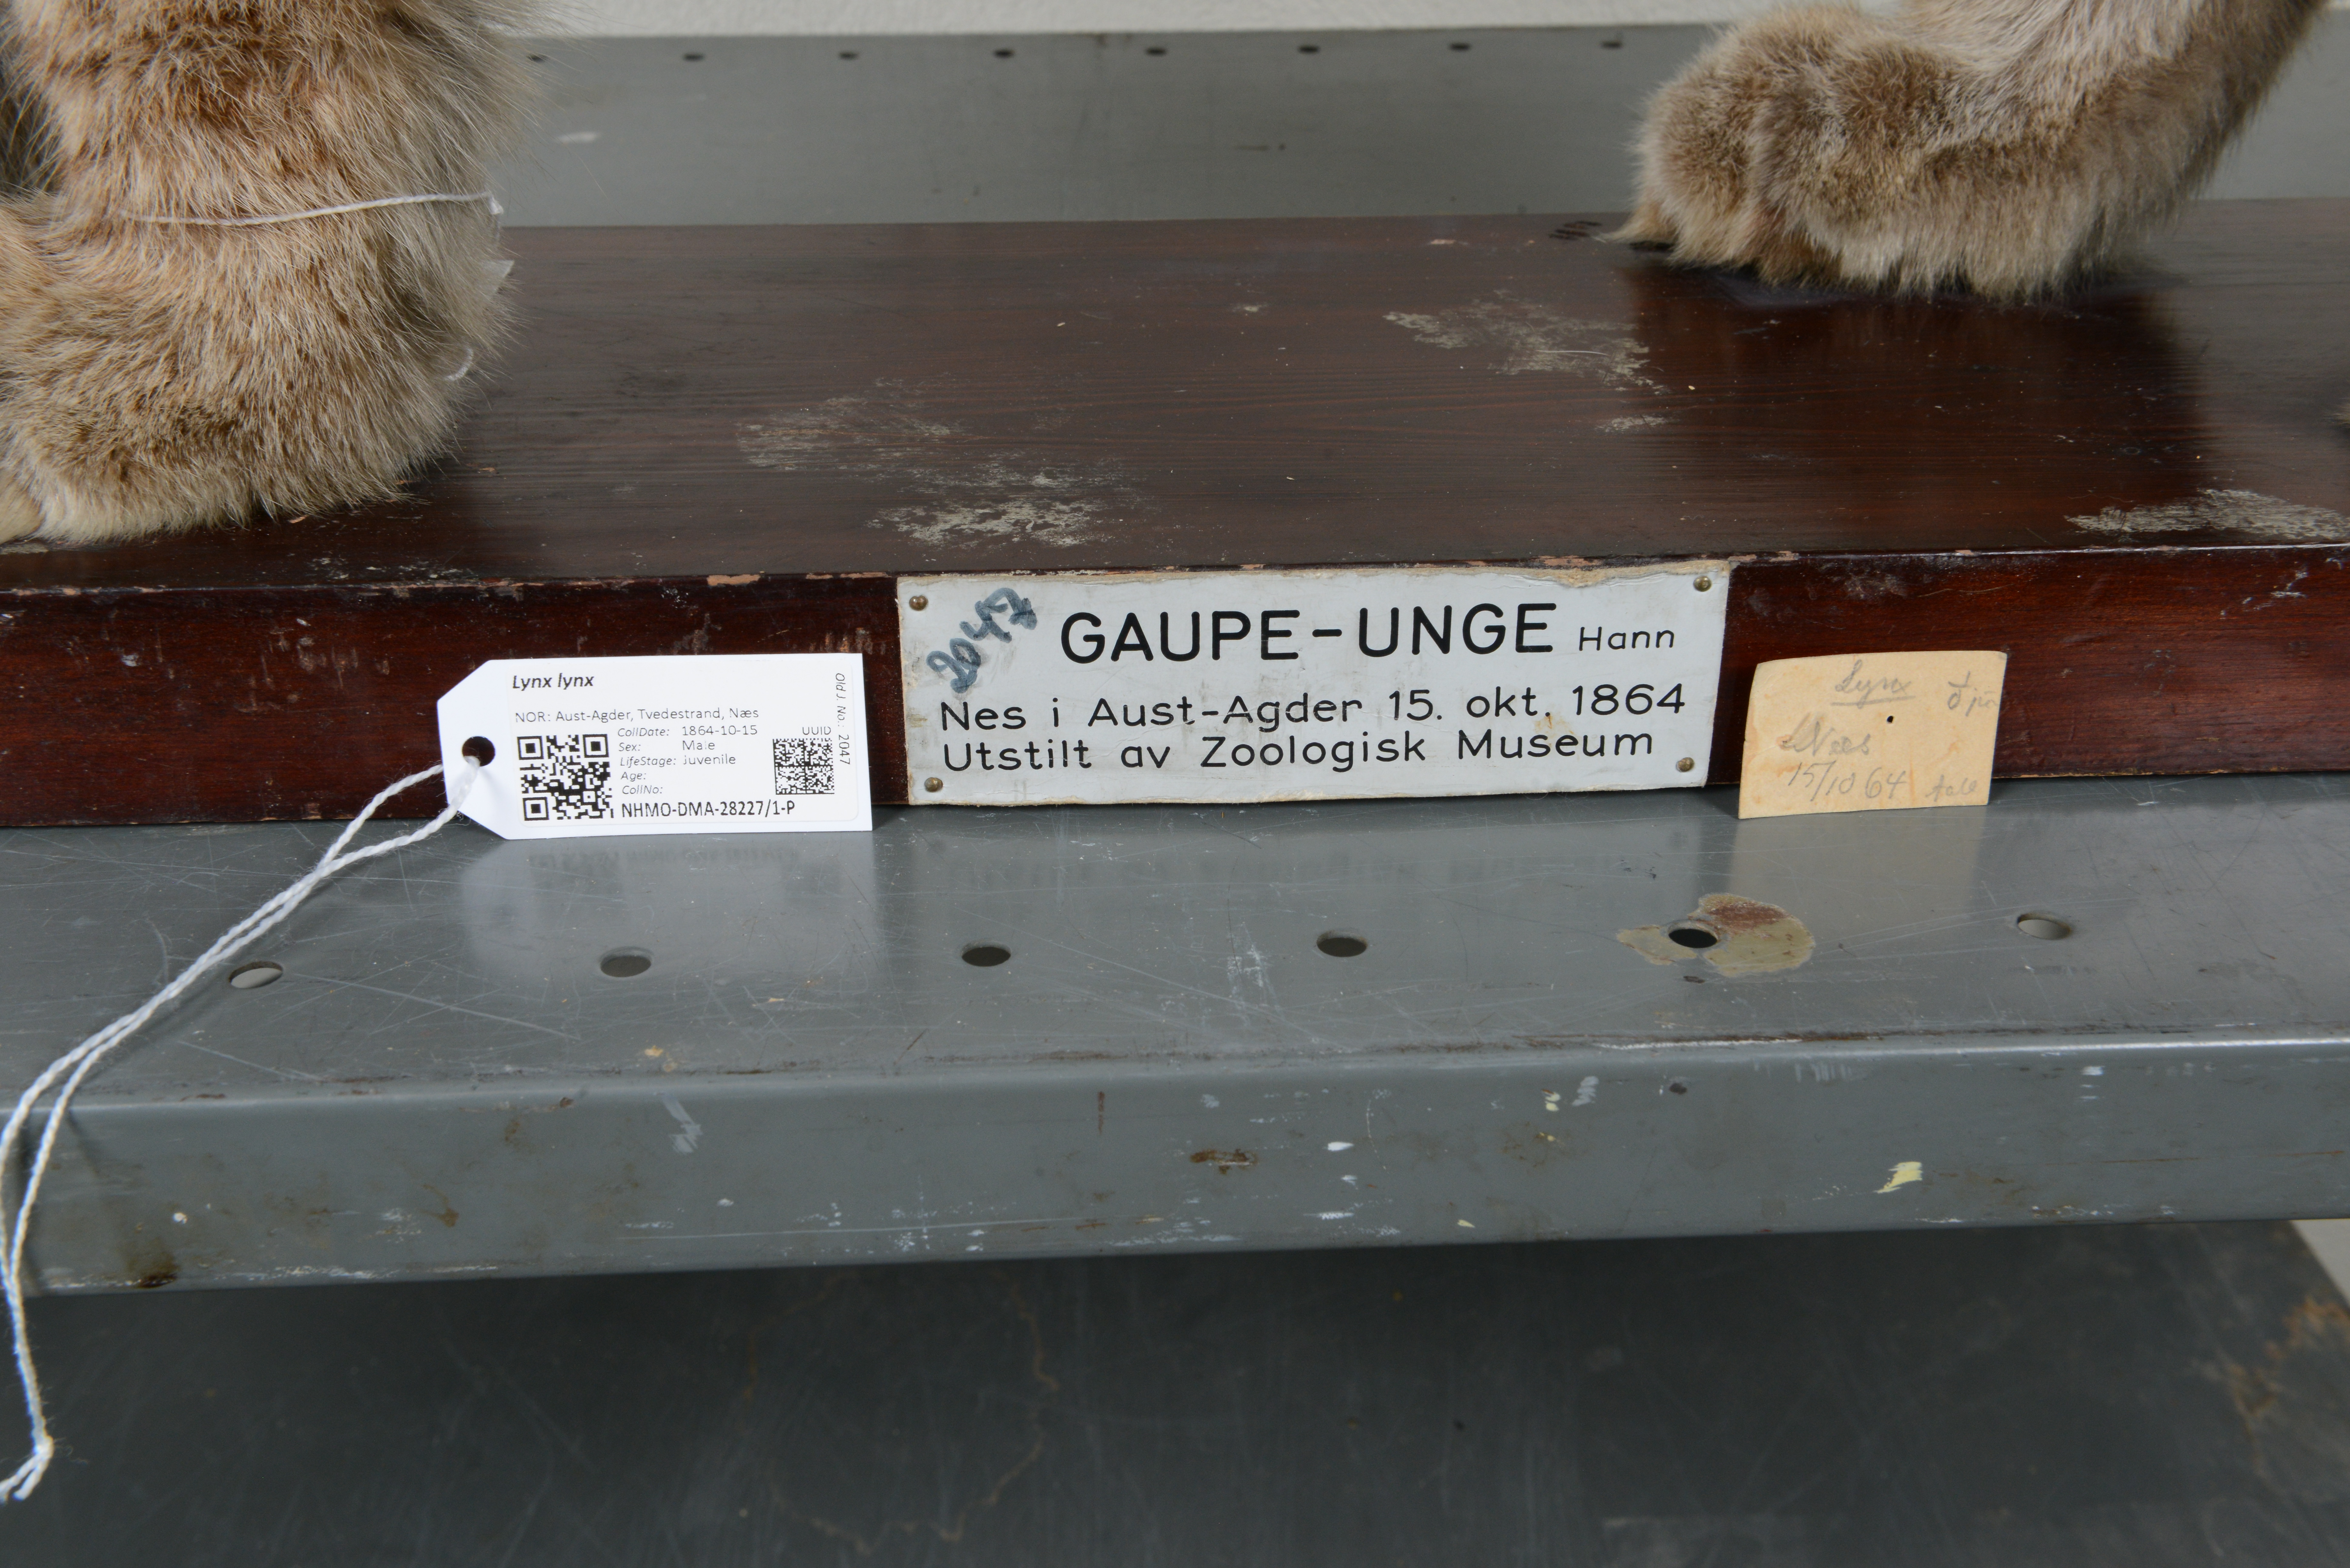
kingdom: Animalia
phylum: Chordata
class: Mammalia
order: Carnivora
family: Felidae
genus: Lynx
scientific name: Lynx lynx
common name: Eurasian lynx
